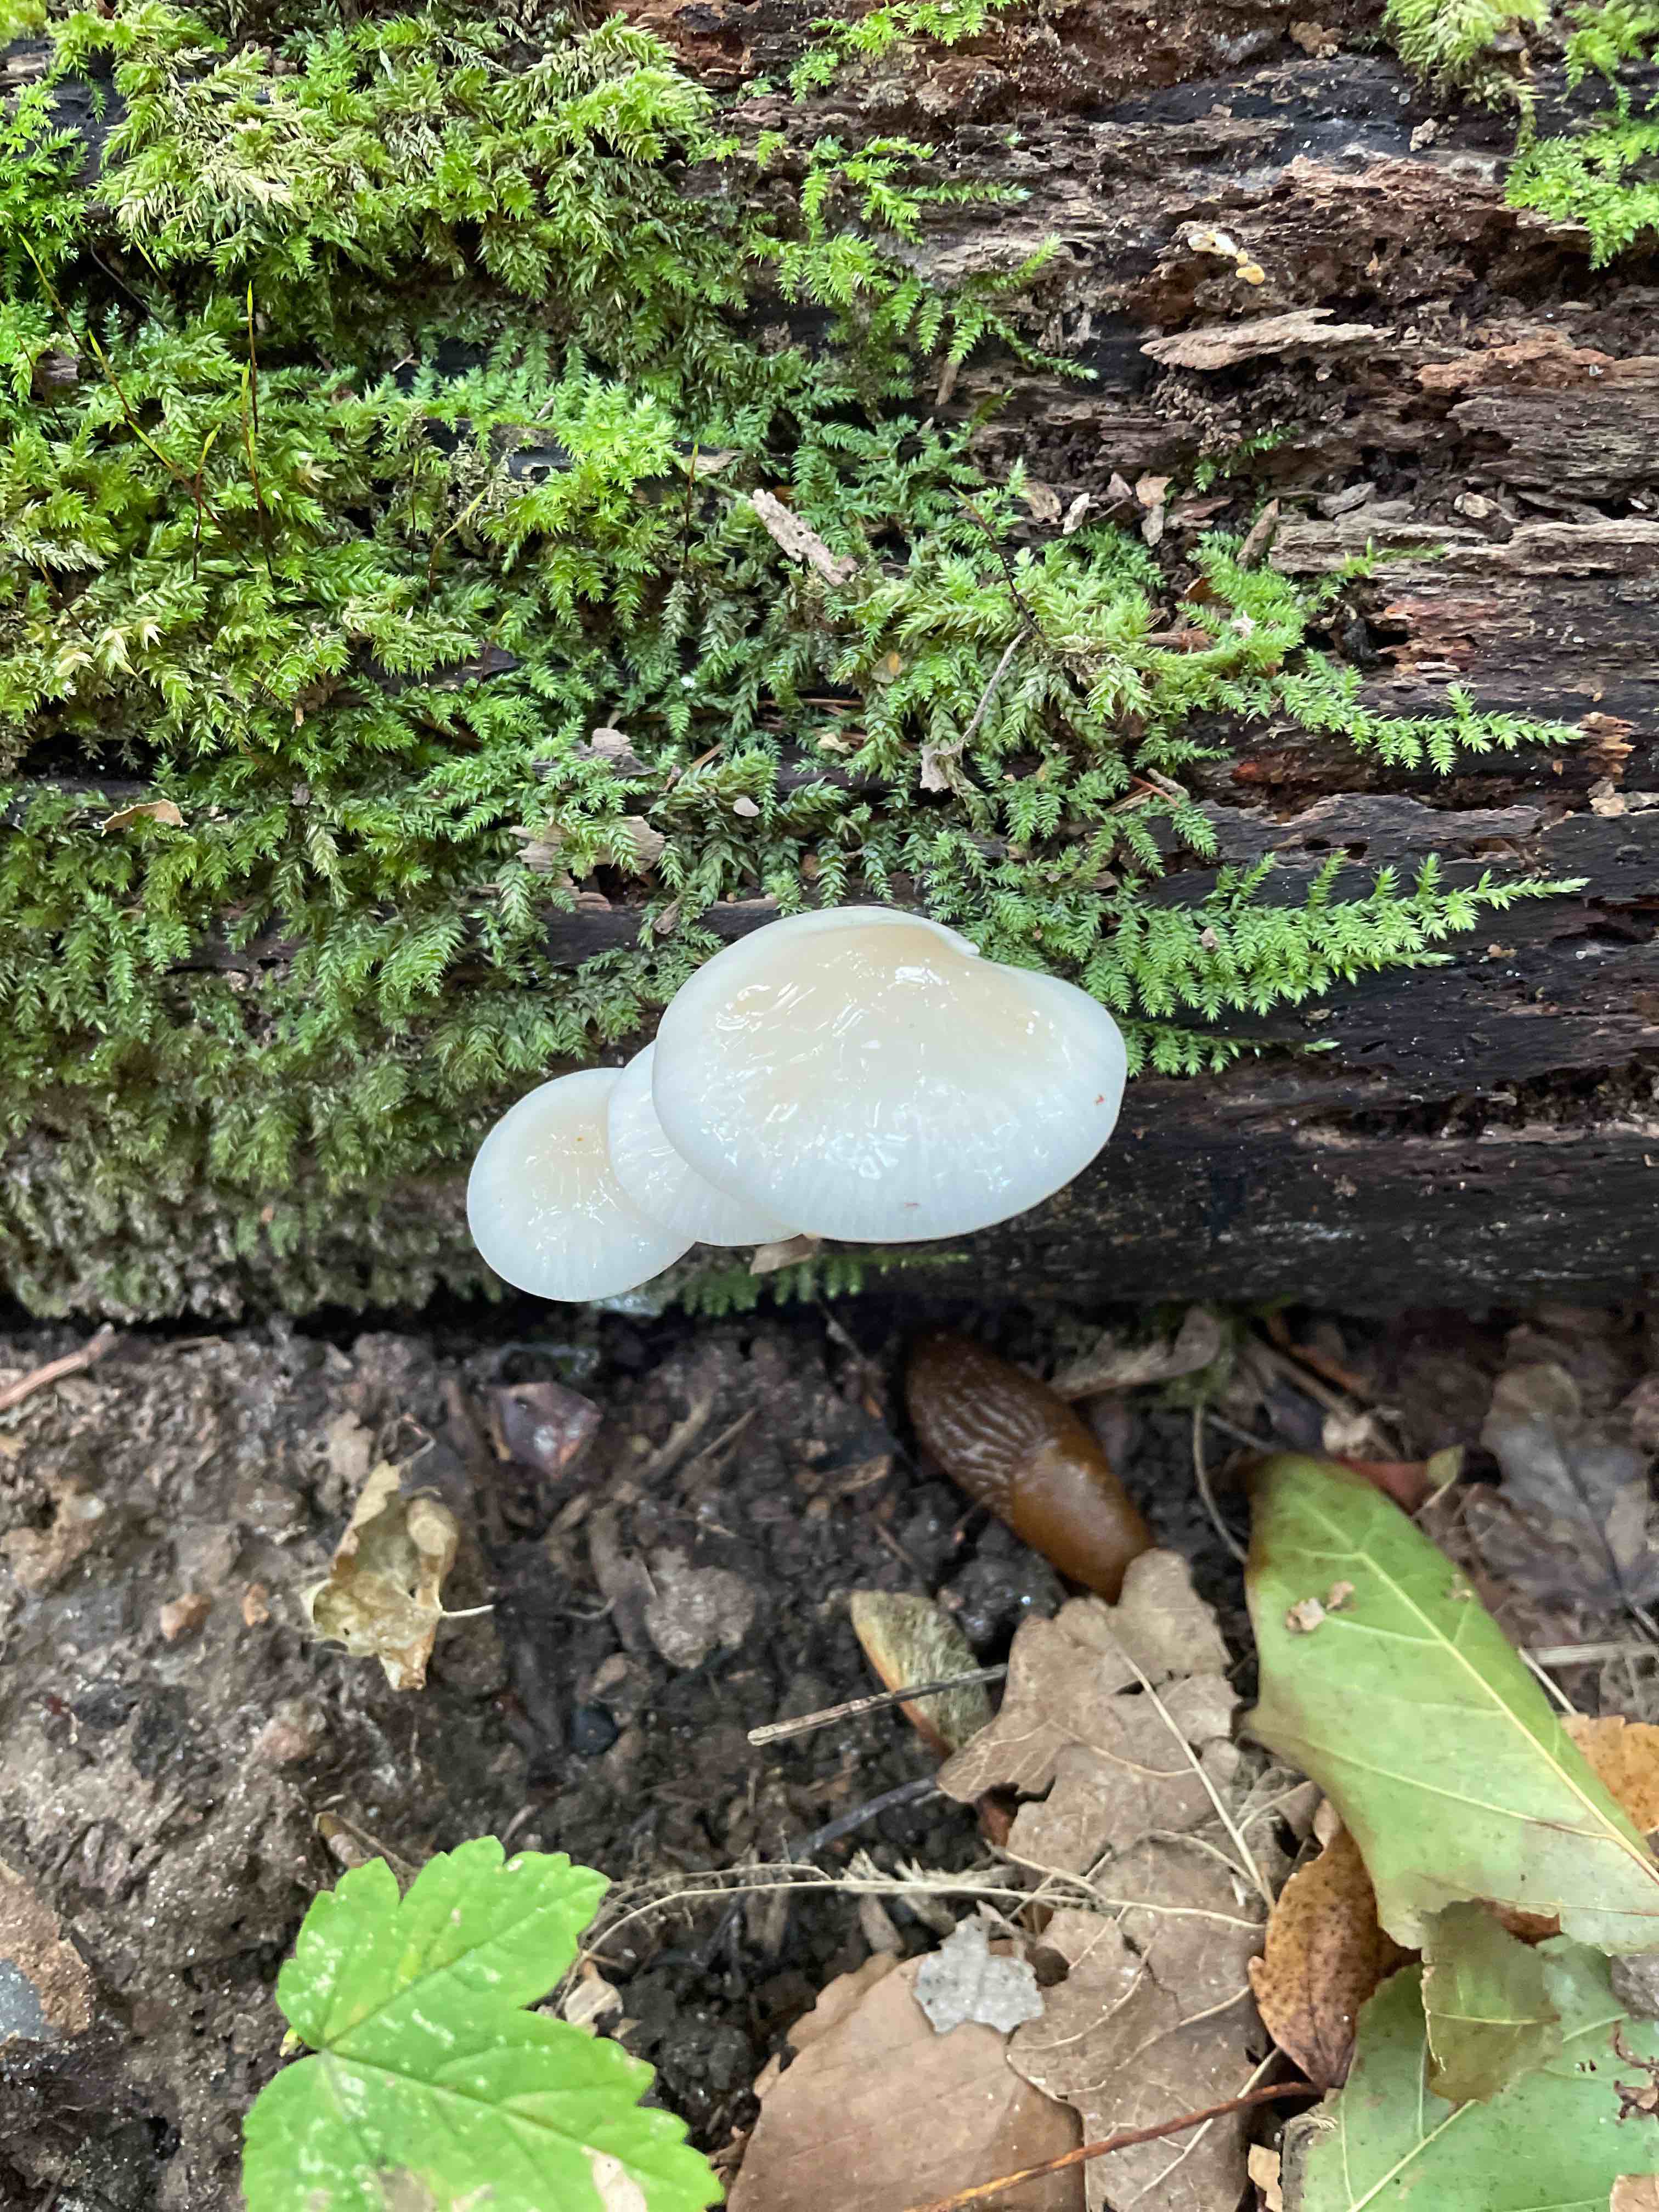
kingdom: Fungi
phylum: Basidiomycota
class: Agaricomycetes
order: Agaricales
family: Physalacriaceae
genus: Mucidula
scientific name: Mucidula mucida
